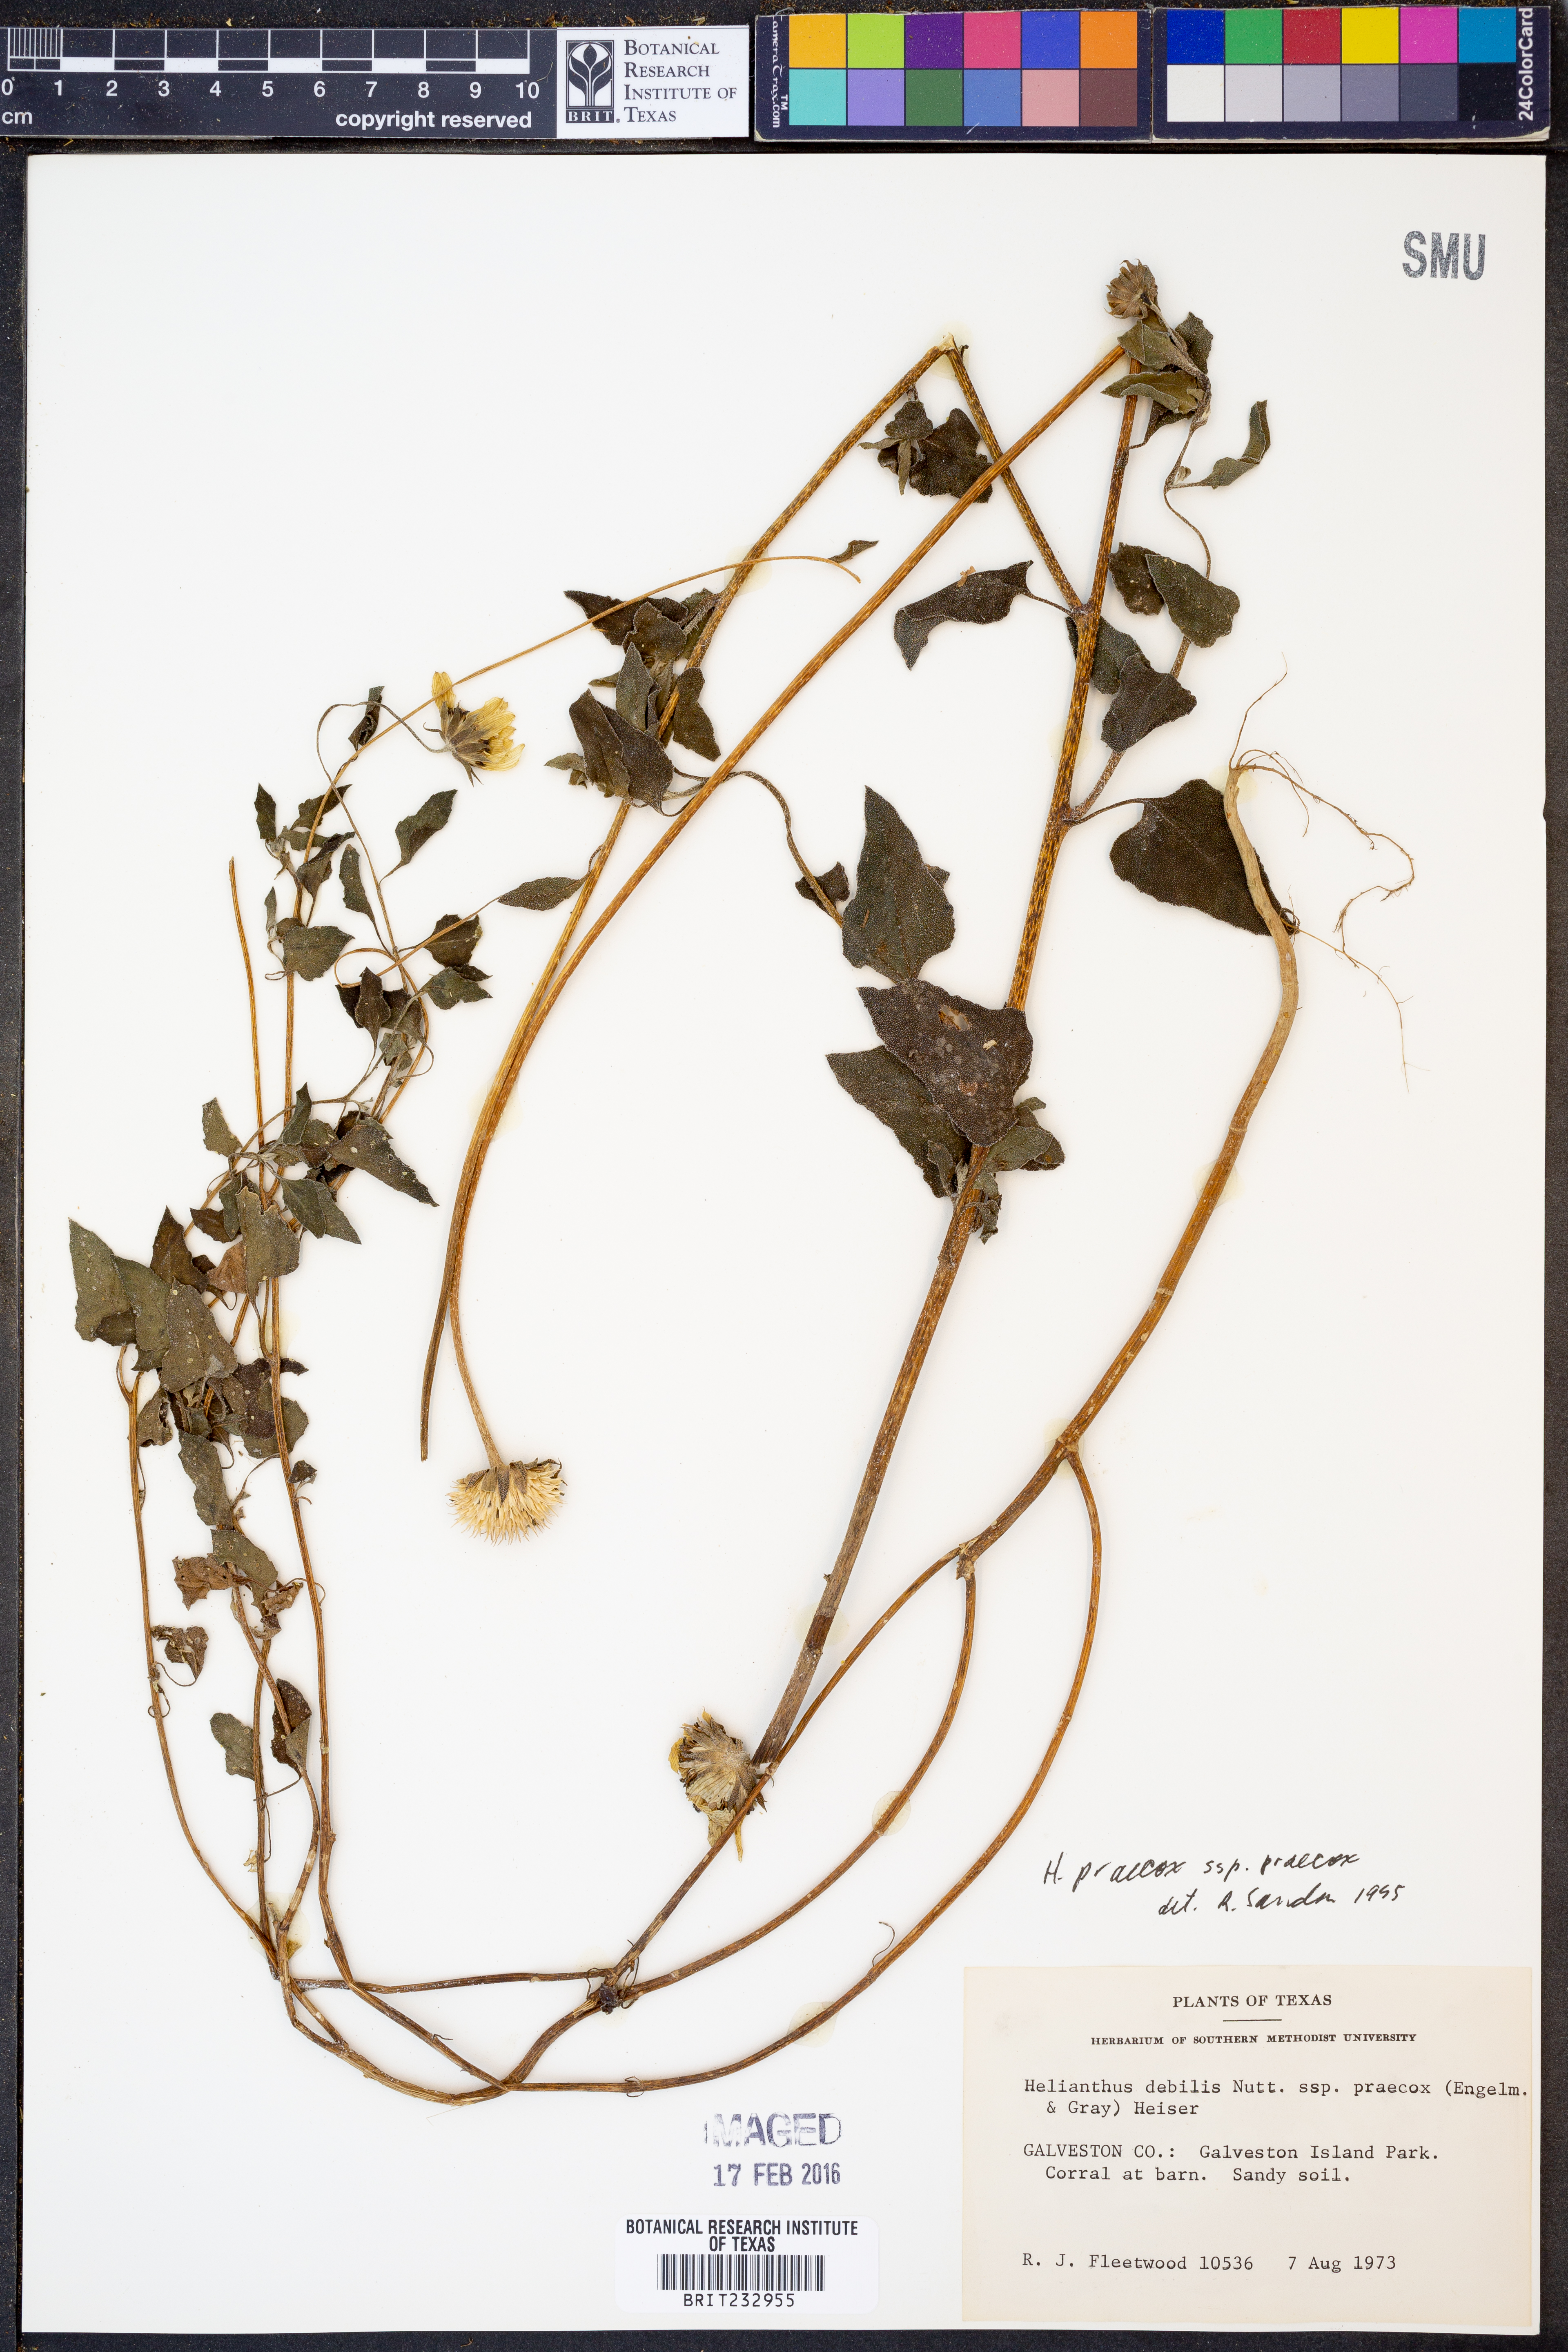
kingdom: Plantae
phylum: Tracheophyta
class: Magnoliopsida
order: Asterales
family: Asteraceae
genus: Helianthus
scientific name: Helianthus praecox
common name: Texas sunflower
